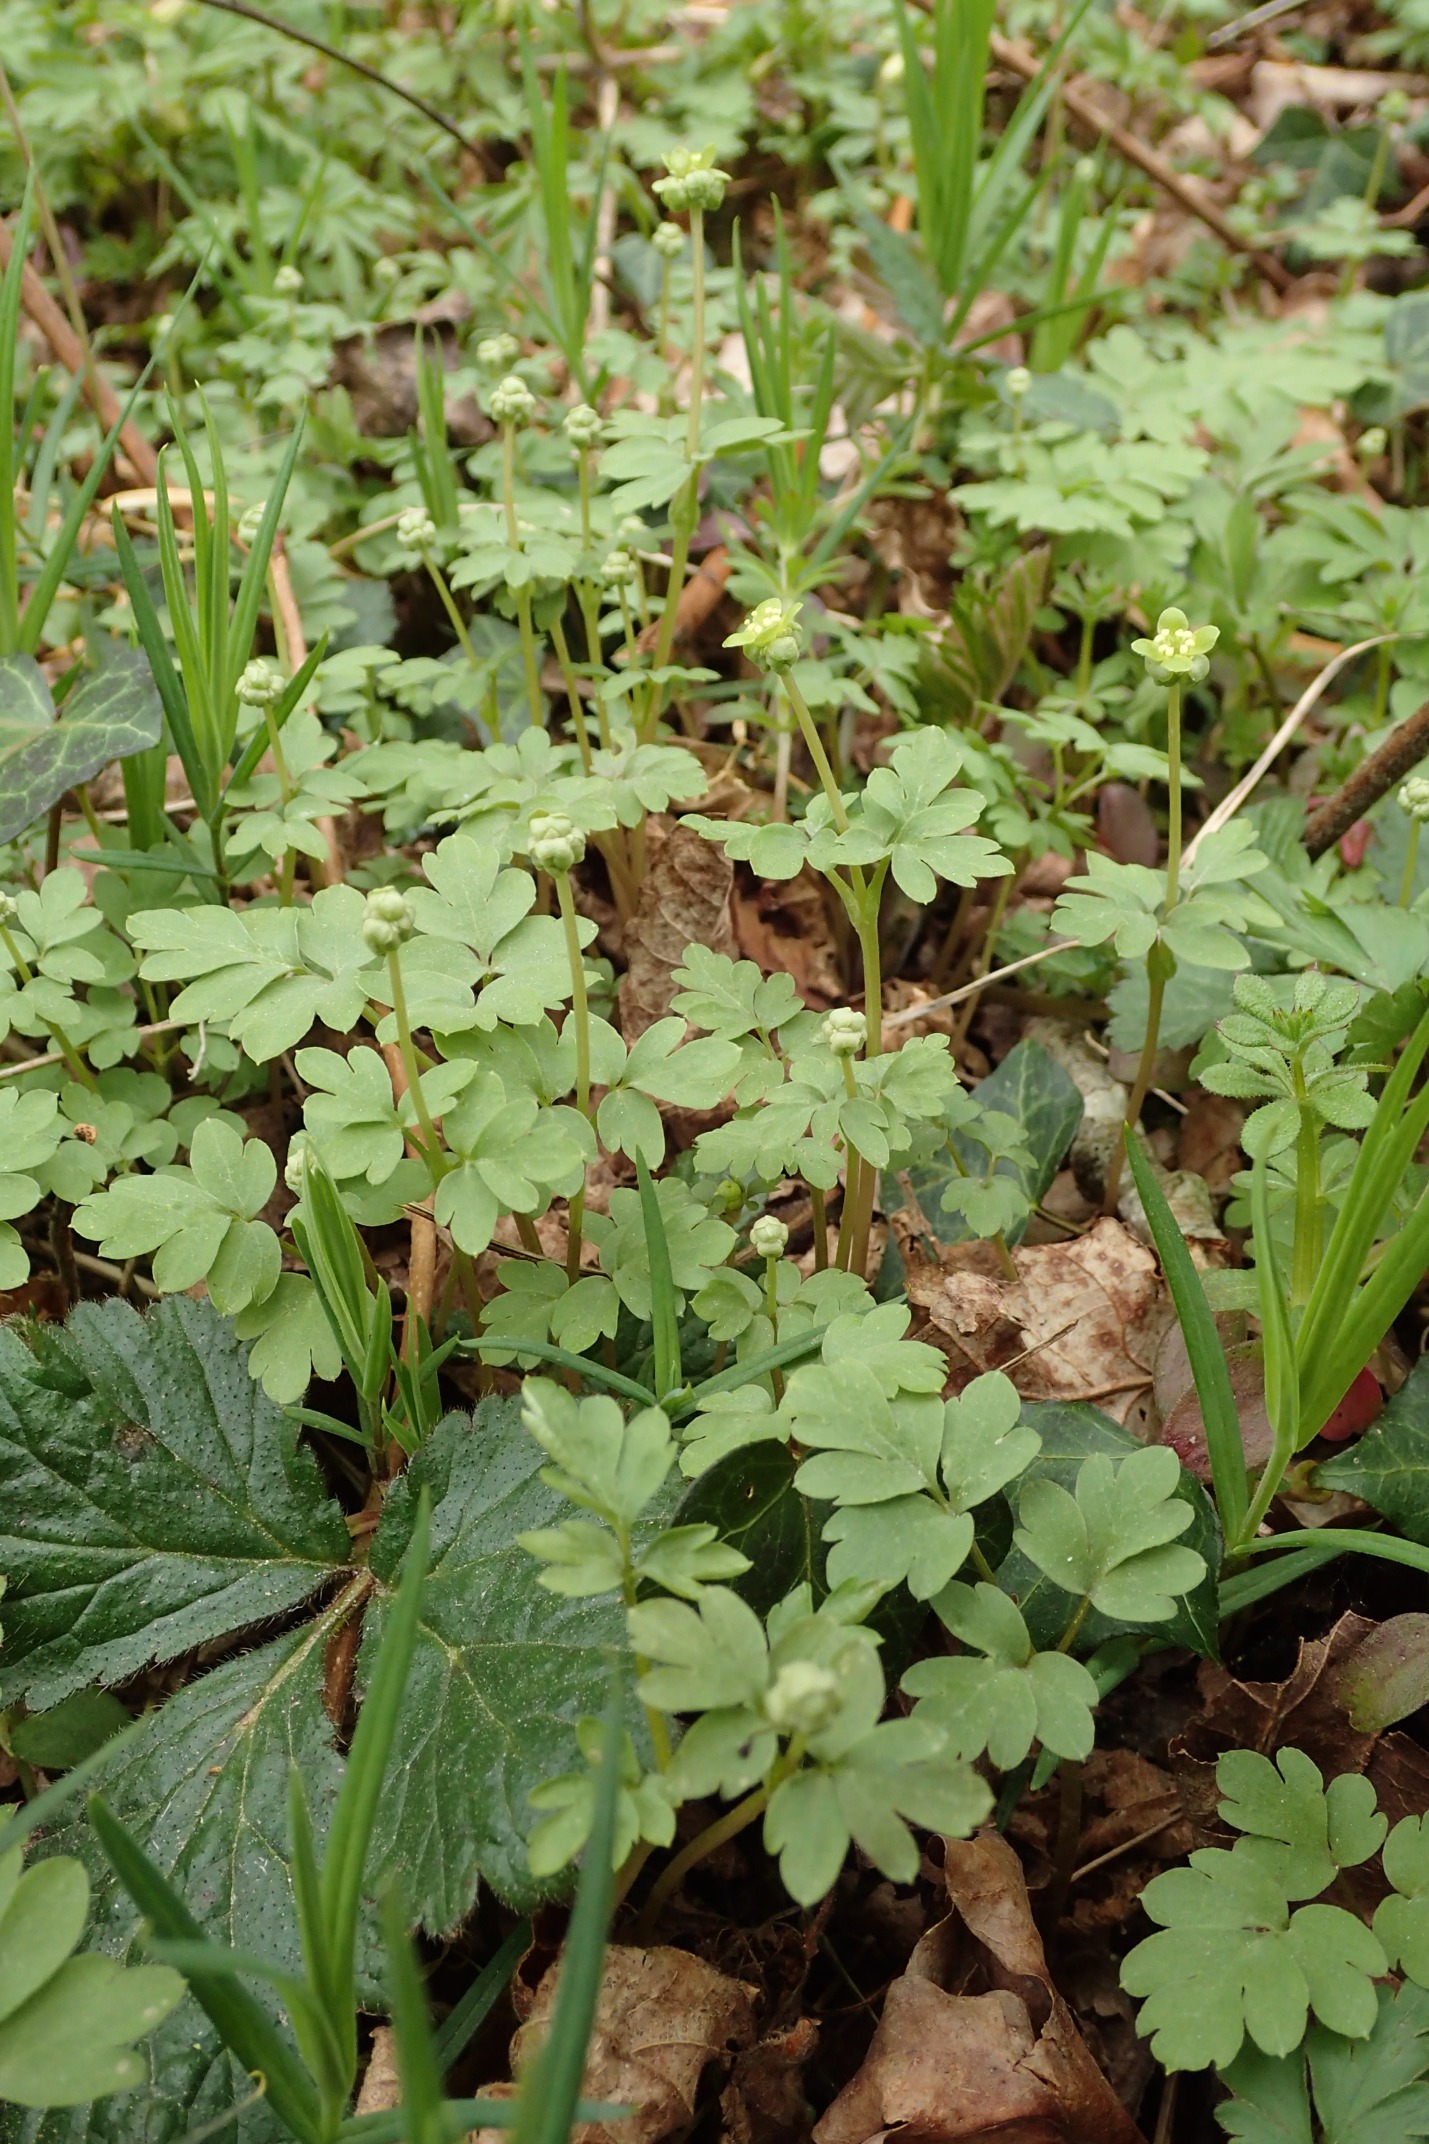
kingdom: Plantae
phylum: Tracheophyta
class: Magnoliopsida
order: Dipsacales
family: Viburnaceae
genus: Adoxa
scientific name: Adoxa moschatellina
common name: Desmerurt
